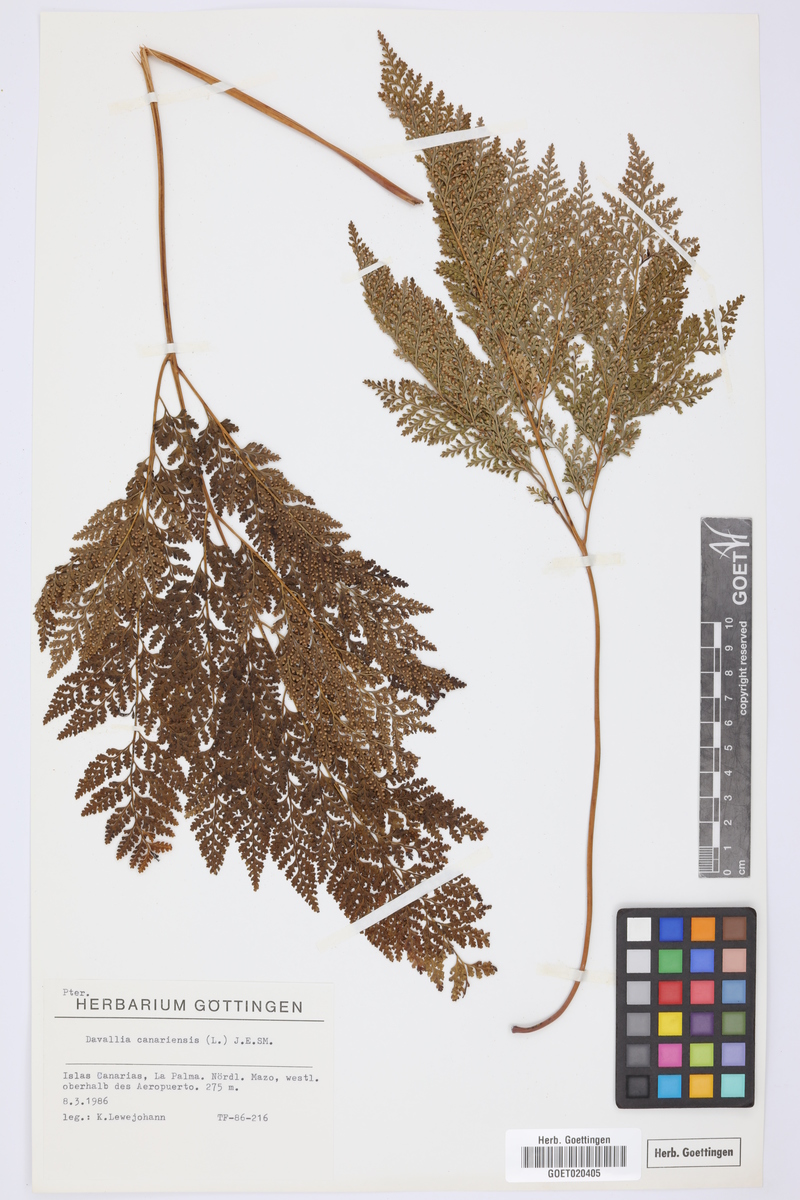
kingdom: Plantae
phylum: Tracheophyta
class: Polypodiopsida
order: Polypodiales
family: Davalliaceae
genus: Davallia
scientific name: Davallia canariensis
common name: Hare's-foot fern
